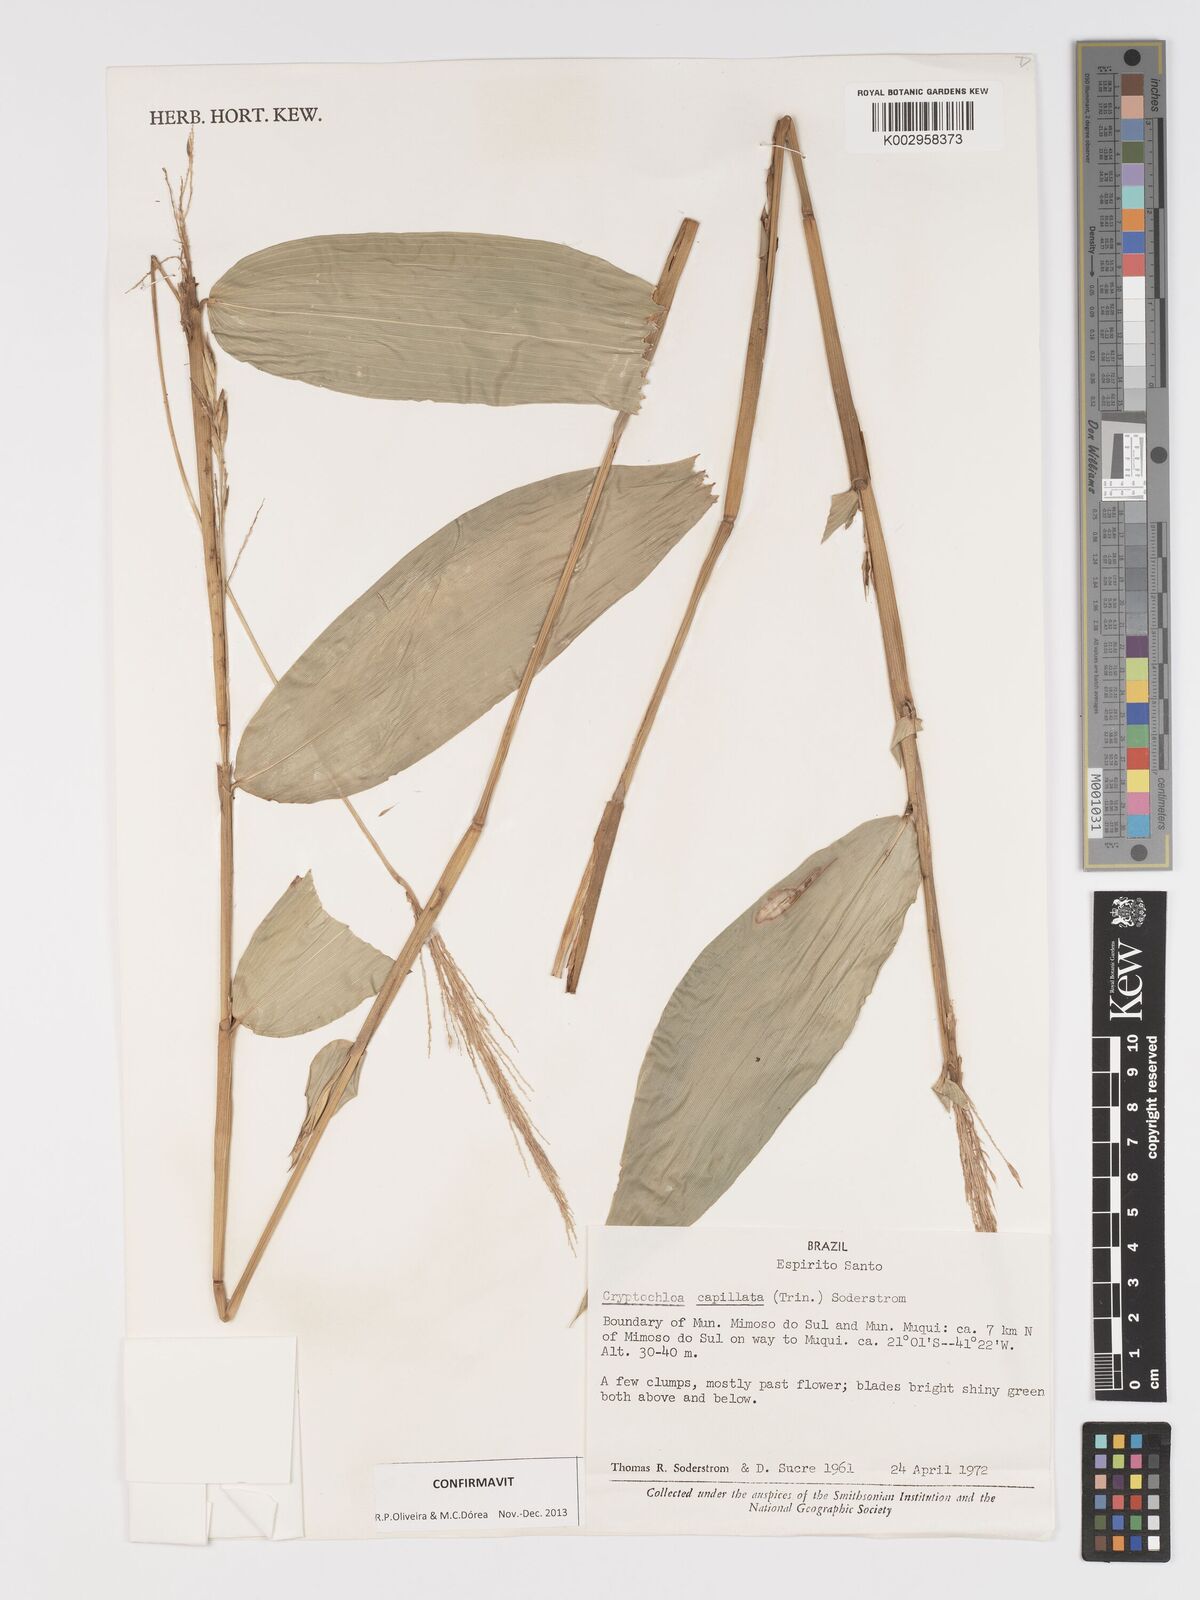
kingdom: Plantae
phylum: Tracheophyta
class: Liliopsida
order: Poales
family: Poaceae
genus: Cryptochloa
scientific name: Cryptochloa capillata
